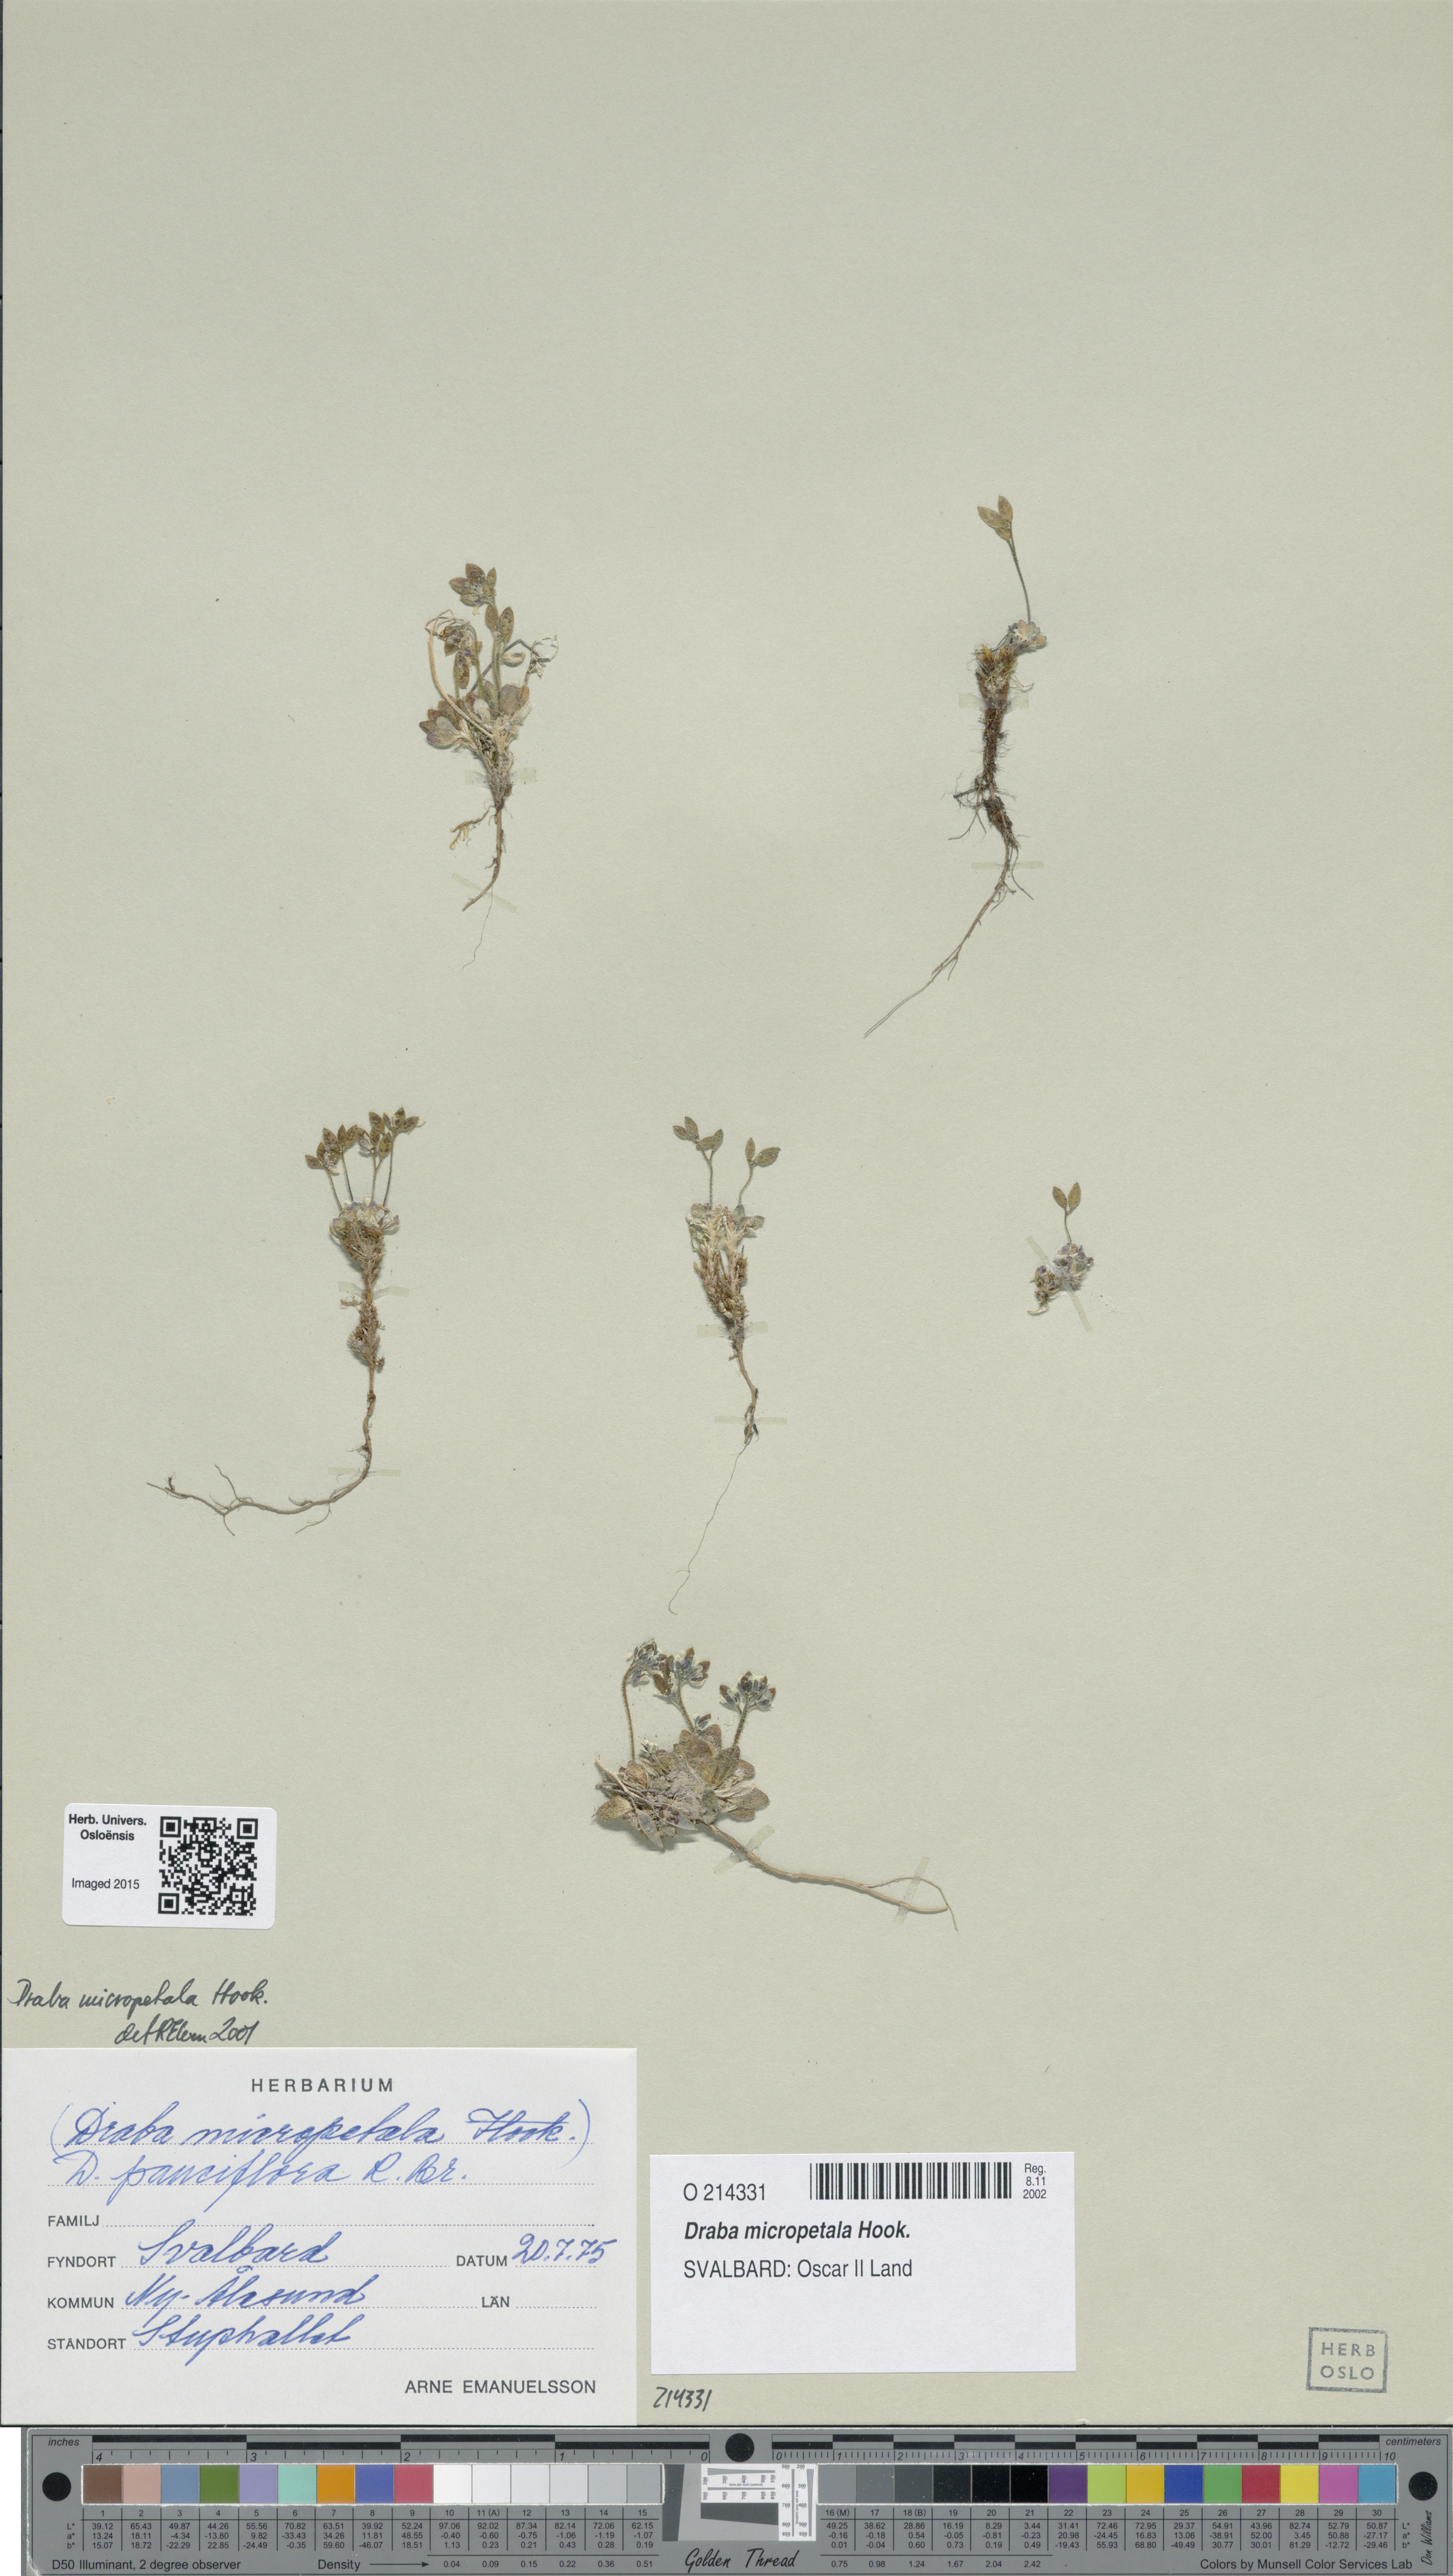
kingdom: Plantae
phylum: Tracheophyta
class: Magnoliopsida
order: Brassicales
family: Brassicaceae
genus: Draba
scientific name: Draba micropetala
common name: Small-flowered draba
